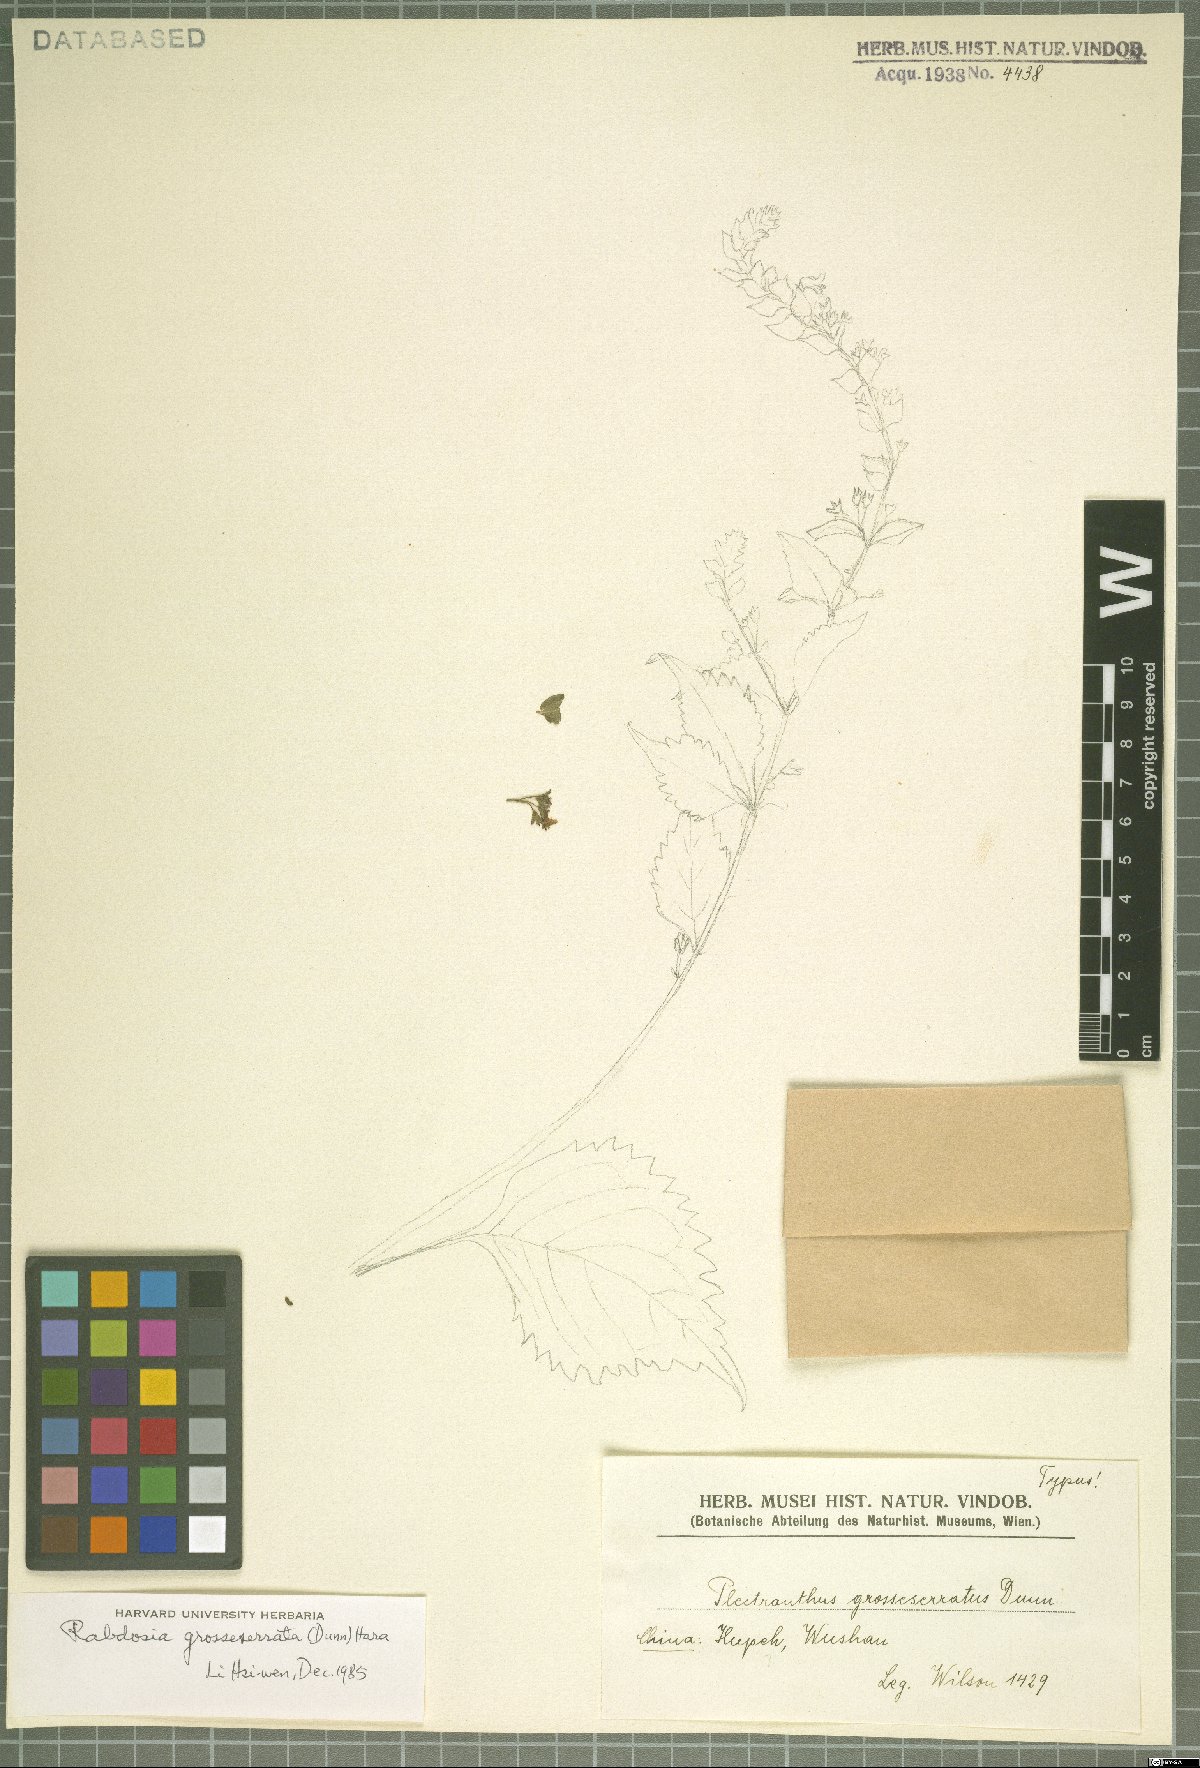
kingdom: Plantae
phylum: Tracheophyta
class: Magnoliopsida
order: Lamiales
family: Lamiaceae
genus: Isodon
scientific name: Isodon grosseserratus
